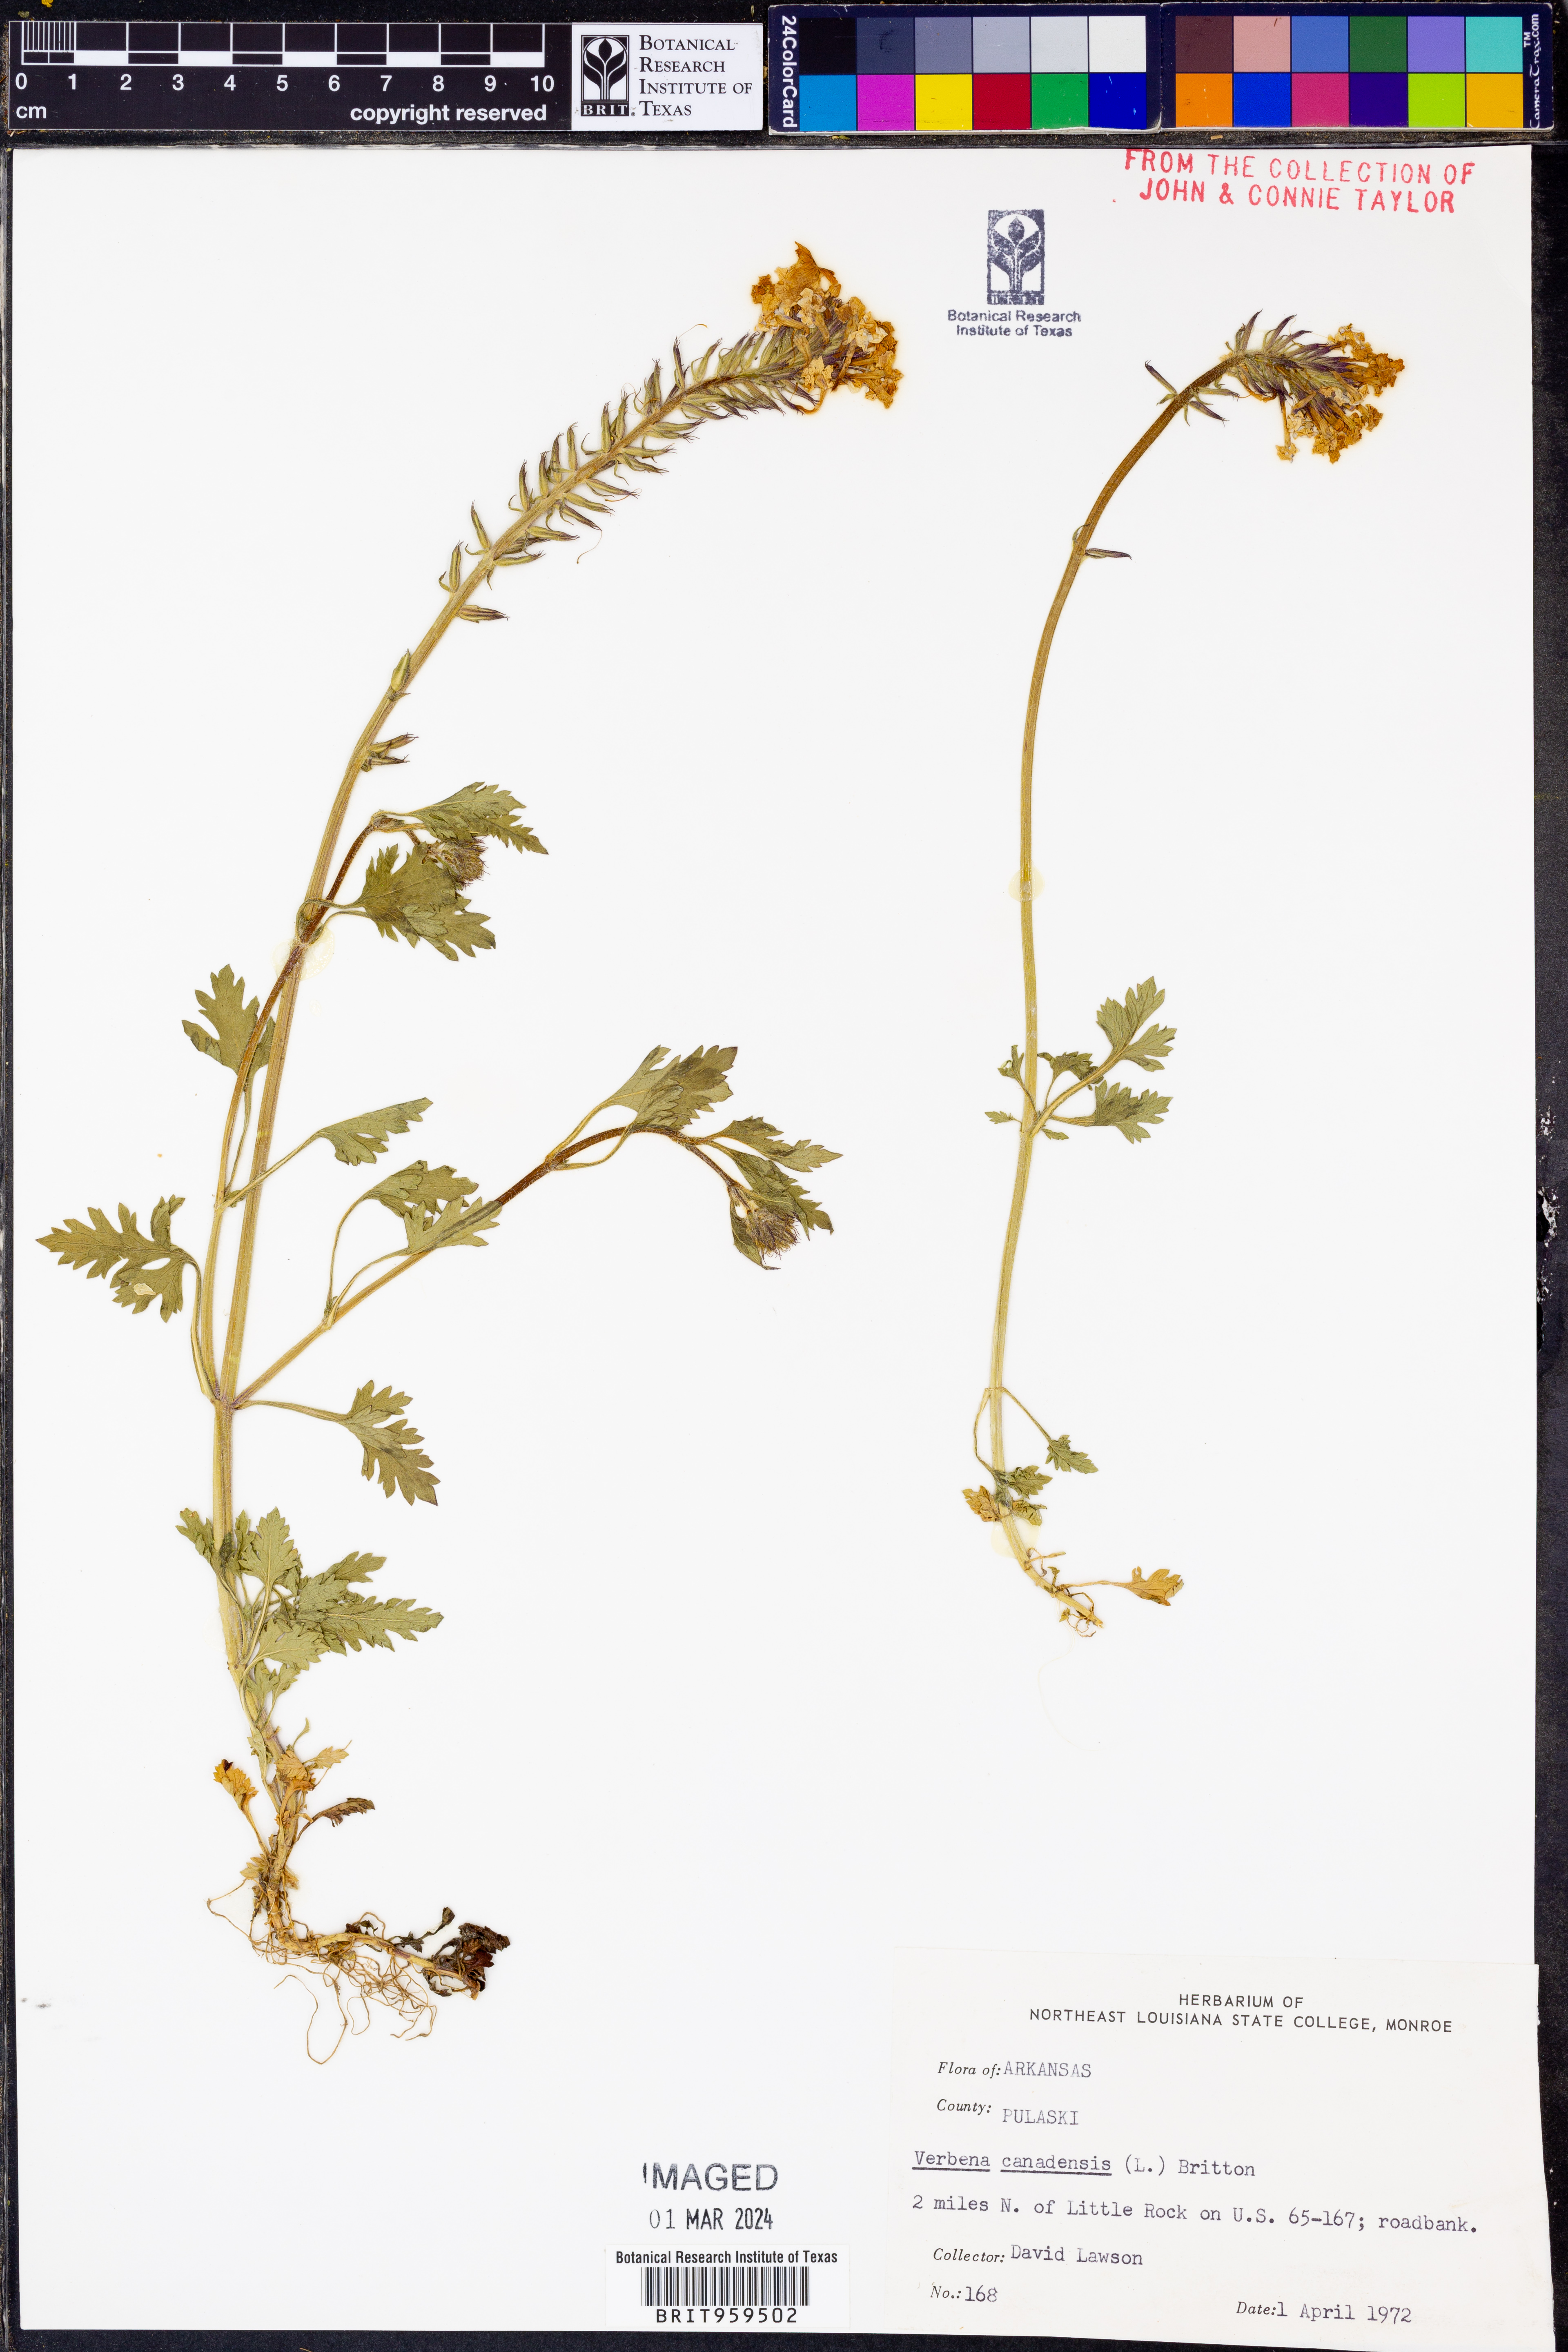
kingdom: Plantae
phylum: Tracheophyta
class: Magnoliopsida
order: Lamiales
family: Verbenaceae
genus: Verbena
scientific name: Verbena canadensis
